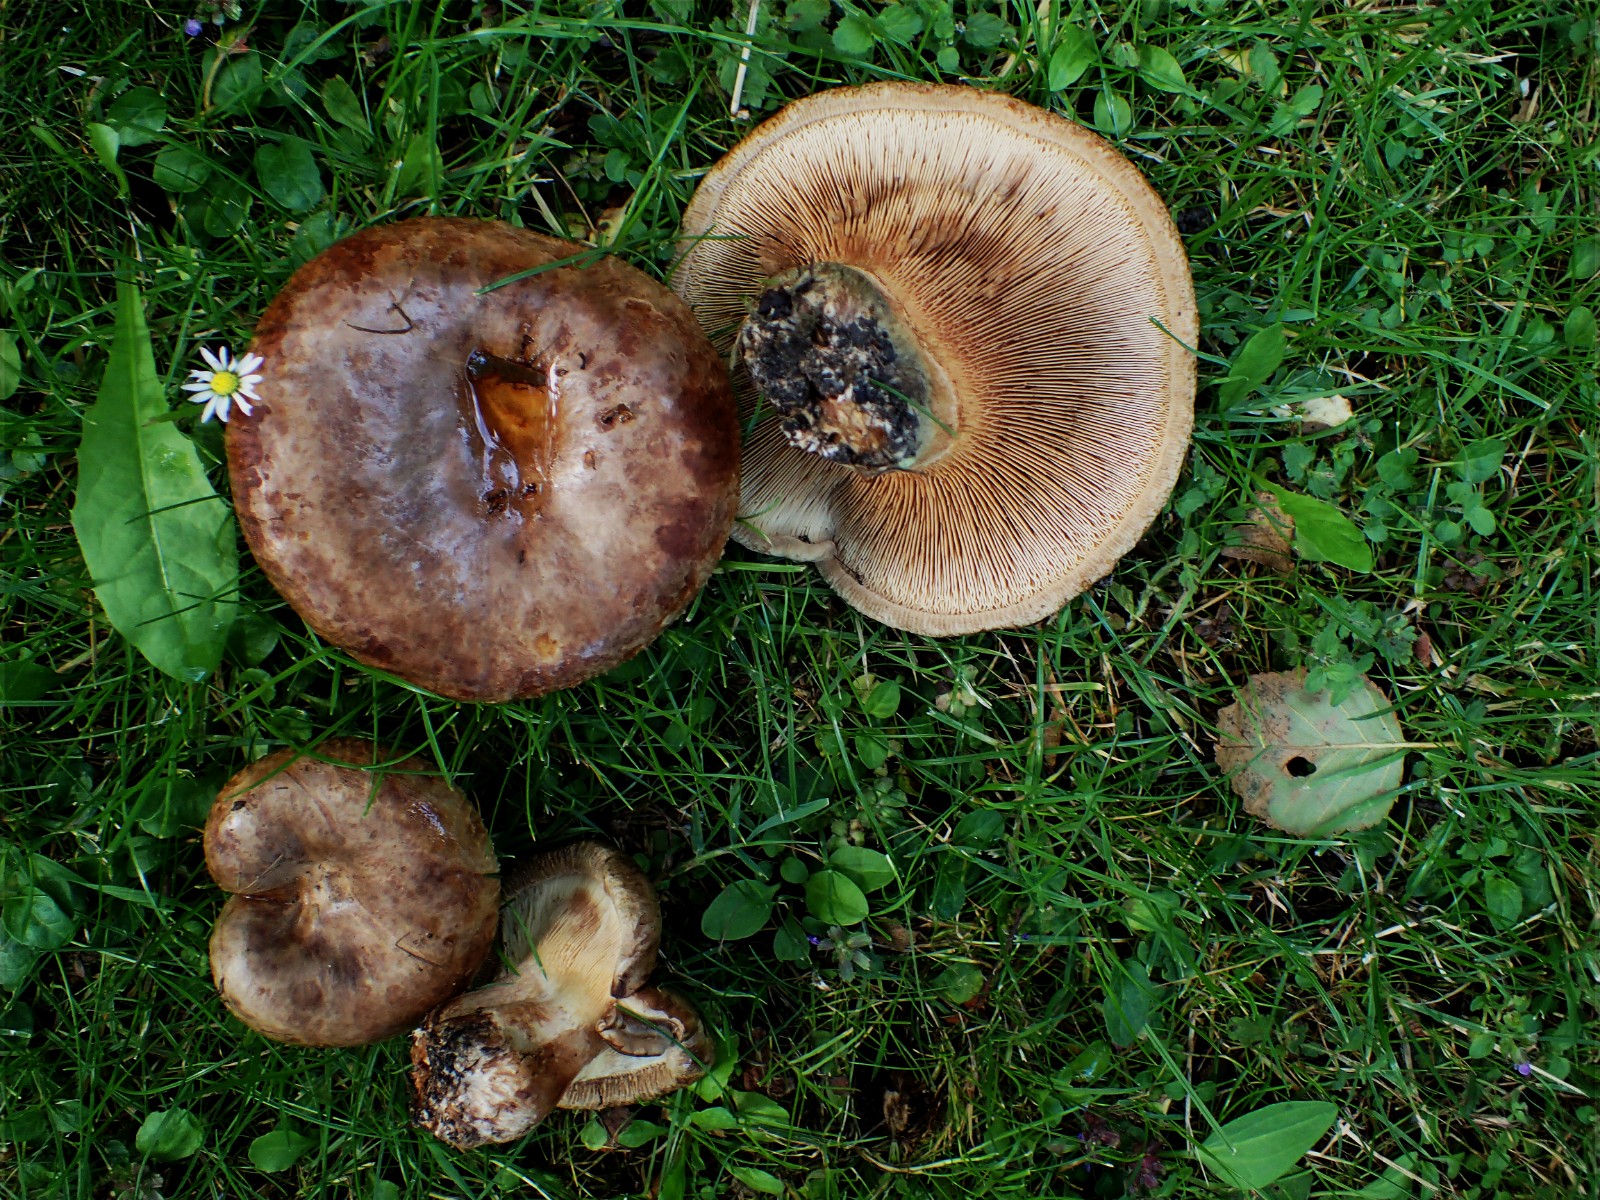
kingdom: Fungi
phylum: Basidiomycota
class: Agaricomycetes
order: Boletales
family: Paxillaceae
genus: Paxillus
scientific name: Paxillus
